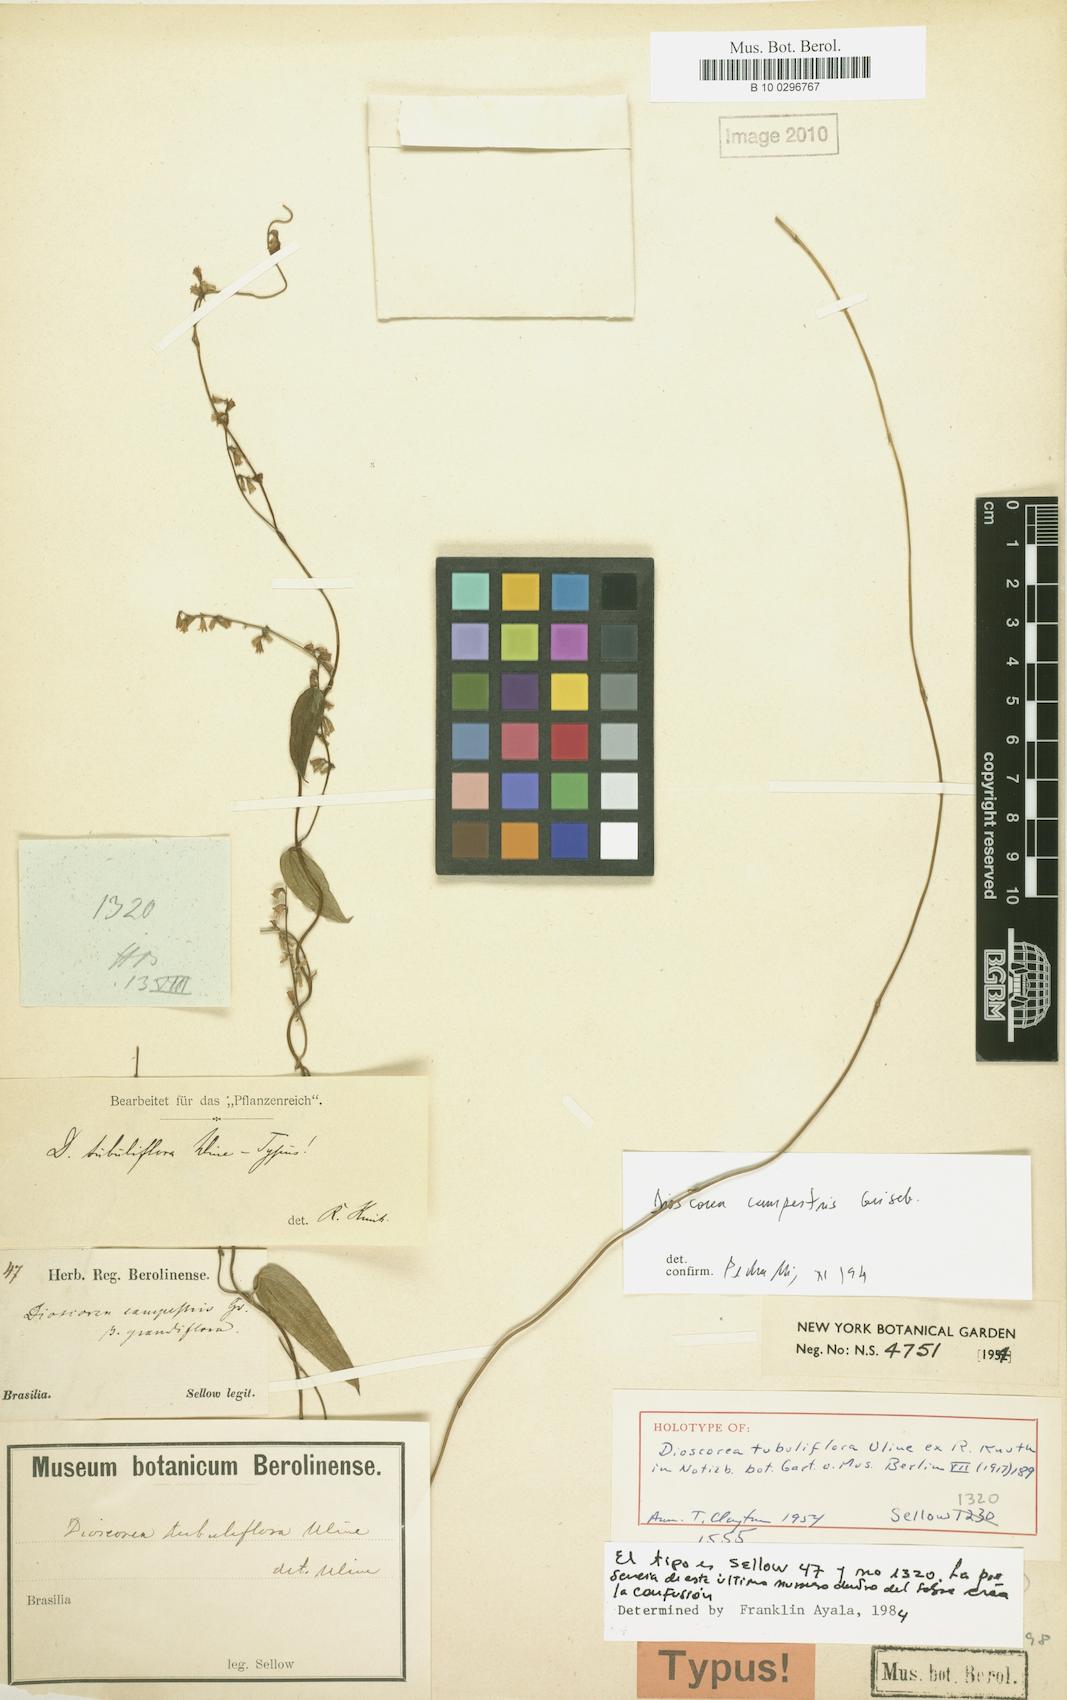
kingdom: Plantae
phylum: Tracheophyta
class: Liliopsida
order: Dioscoreales
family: Dioscoreaceae
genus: Dioscorea
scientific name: Dioscorea tubuliflora
